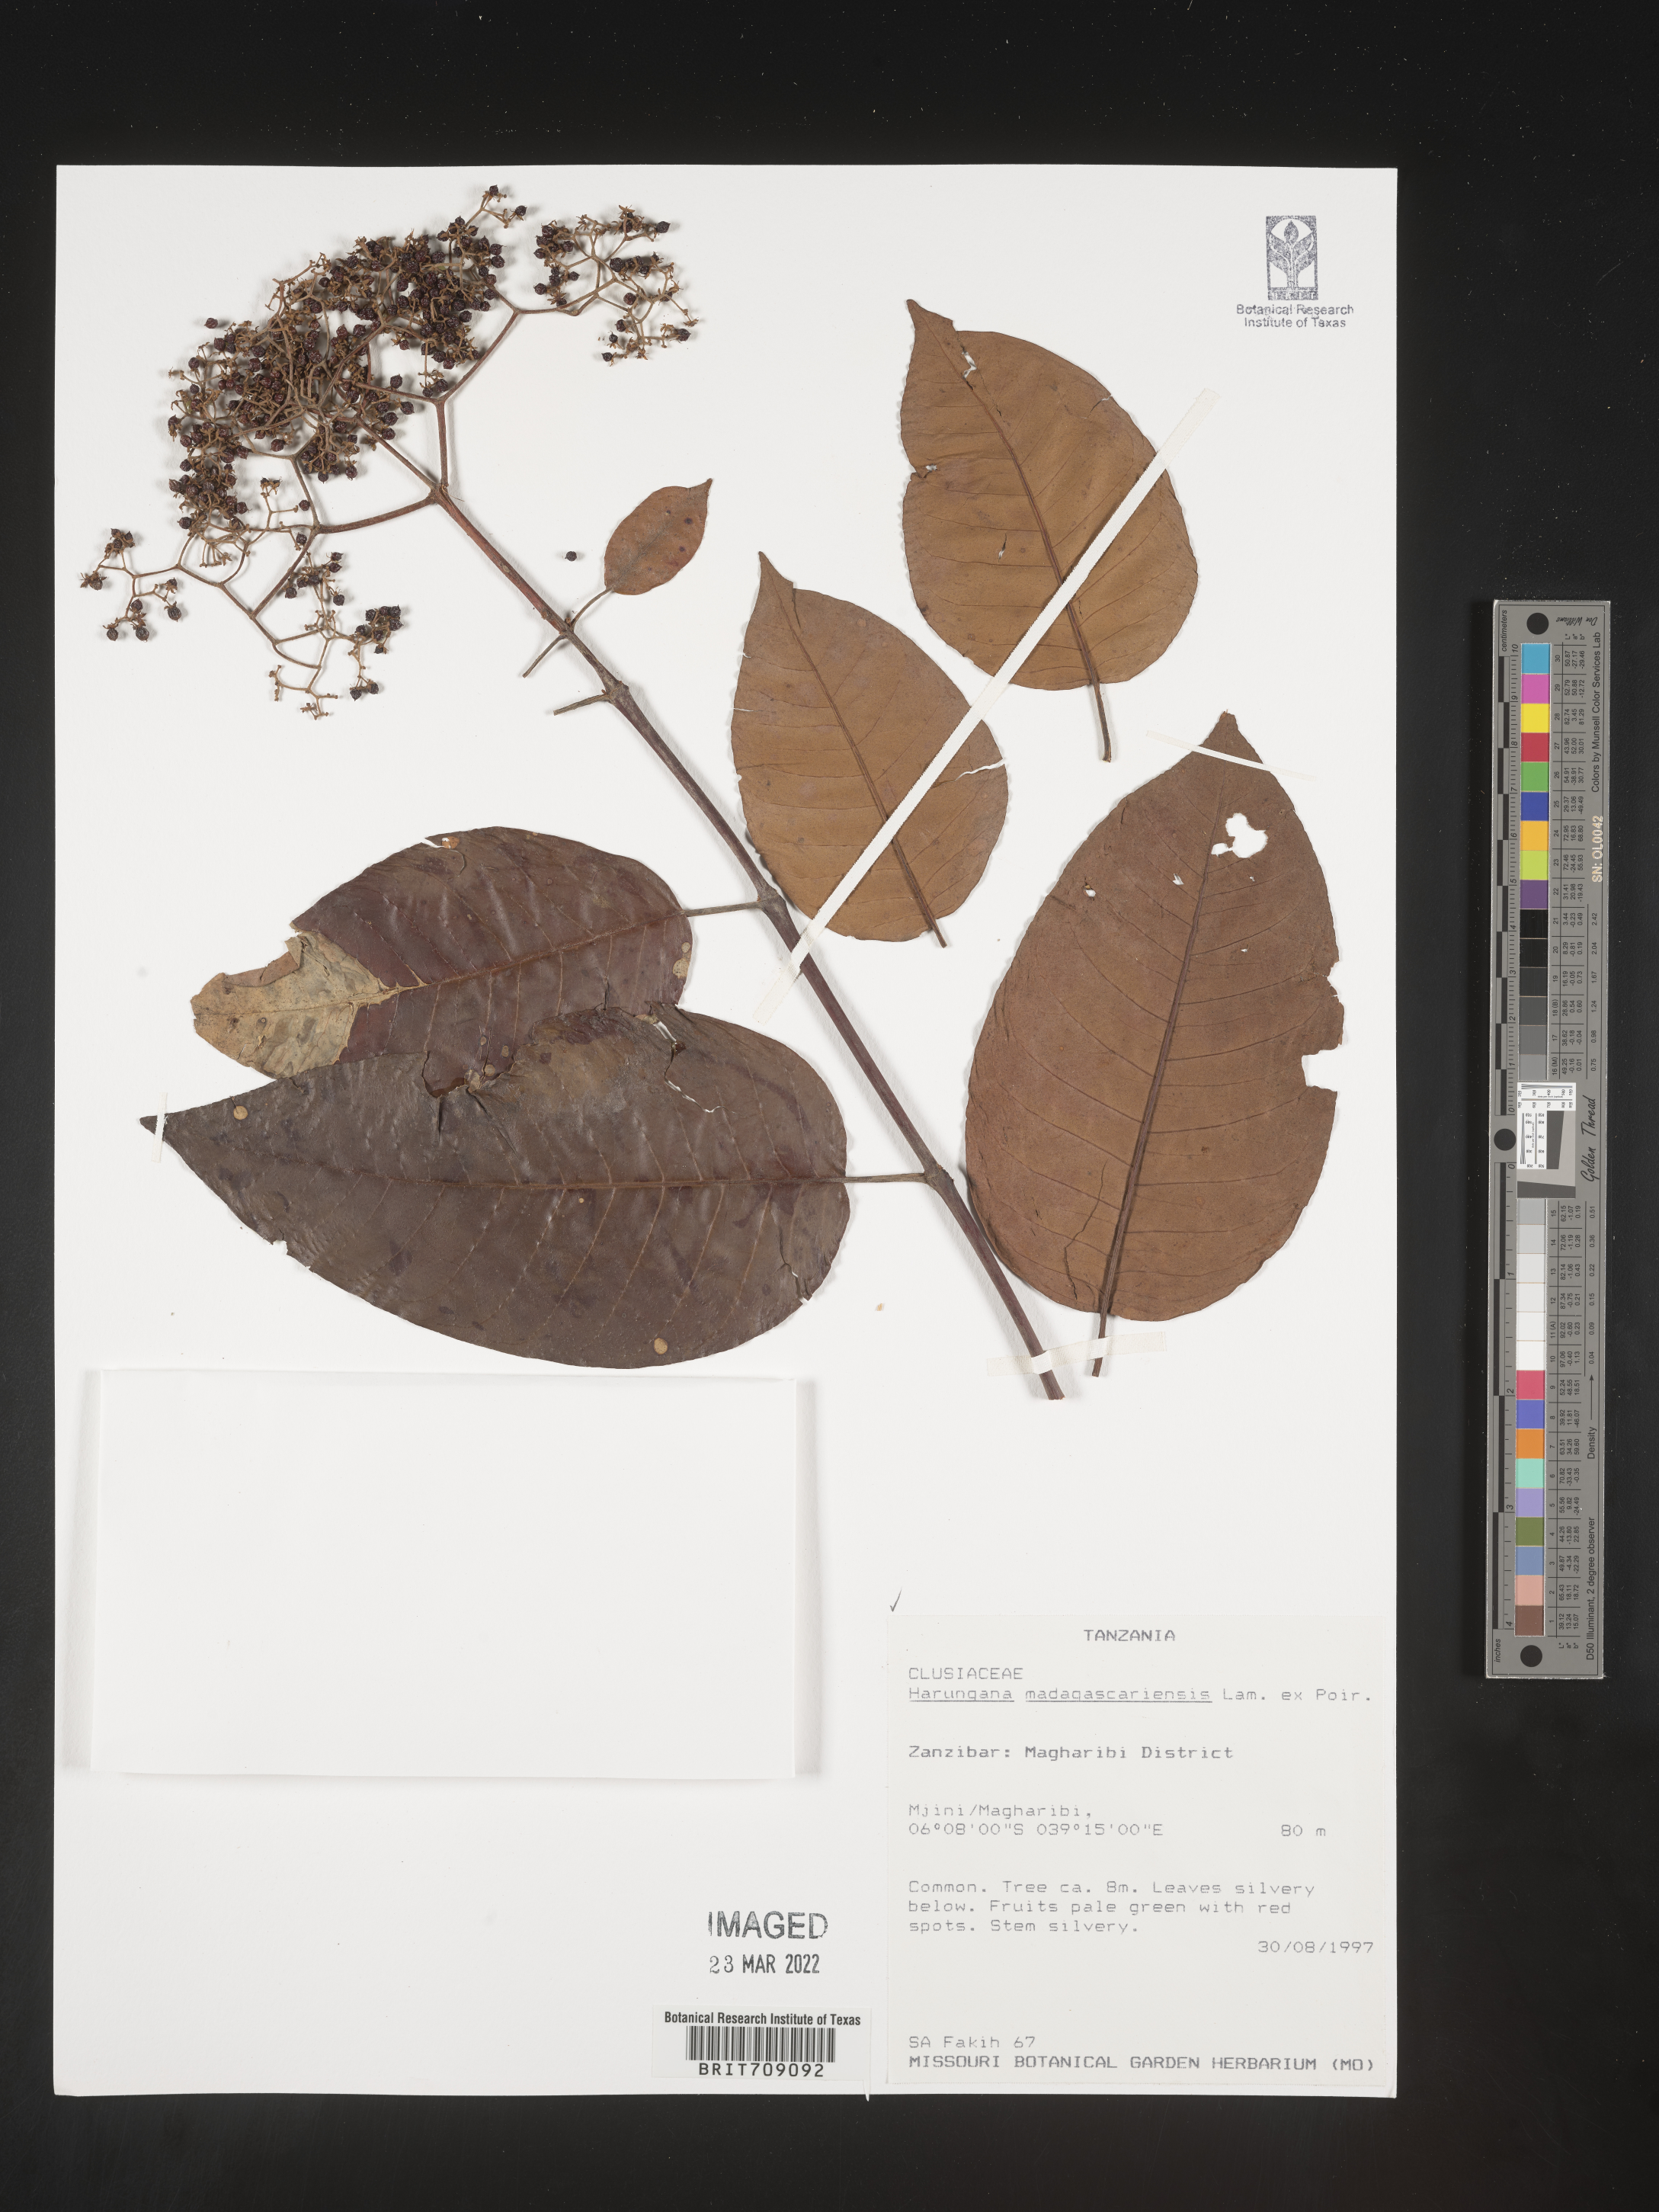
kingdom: Plantae
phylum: Tracheophyta
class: Magnoliopsida
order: Malpighiales
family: Hypericaceae
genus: Harungana
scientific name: Harungana
